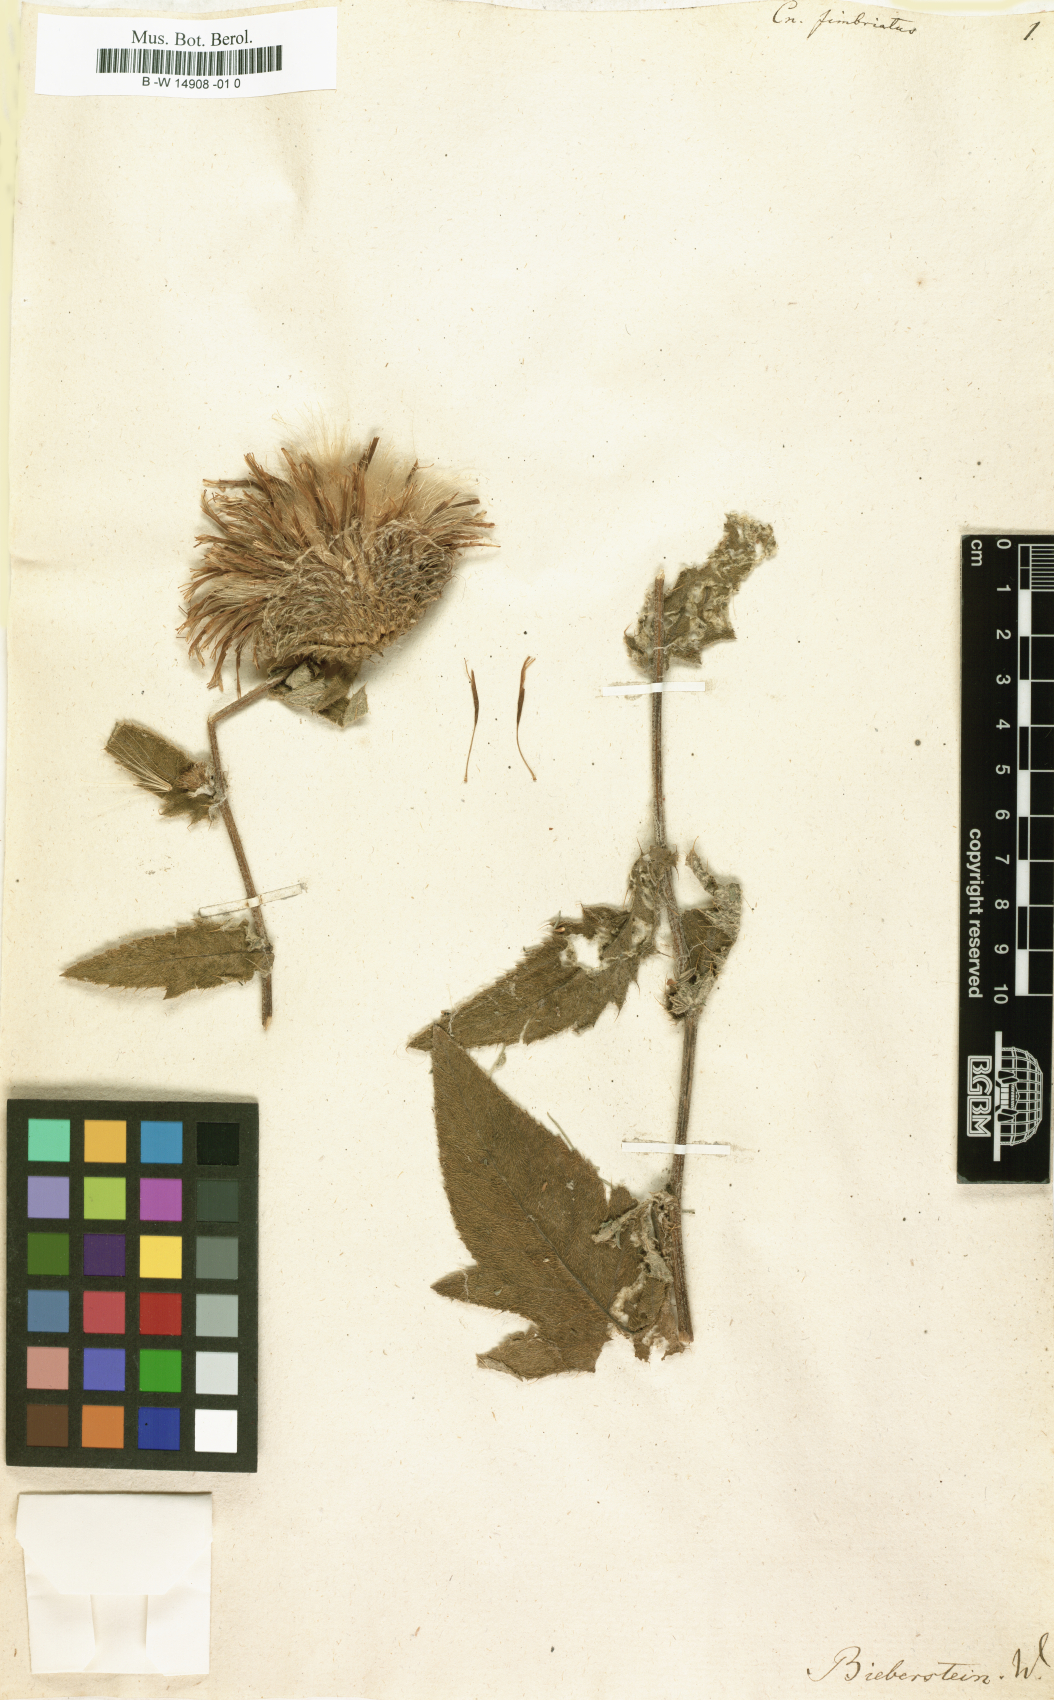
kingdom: Plantae
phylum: Tracheophyta
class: Magnoliopsida
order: Asterales
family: Asteraceae
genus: Lophiolepis
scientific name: Lophiolepis ossetica
